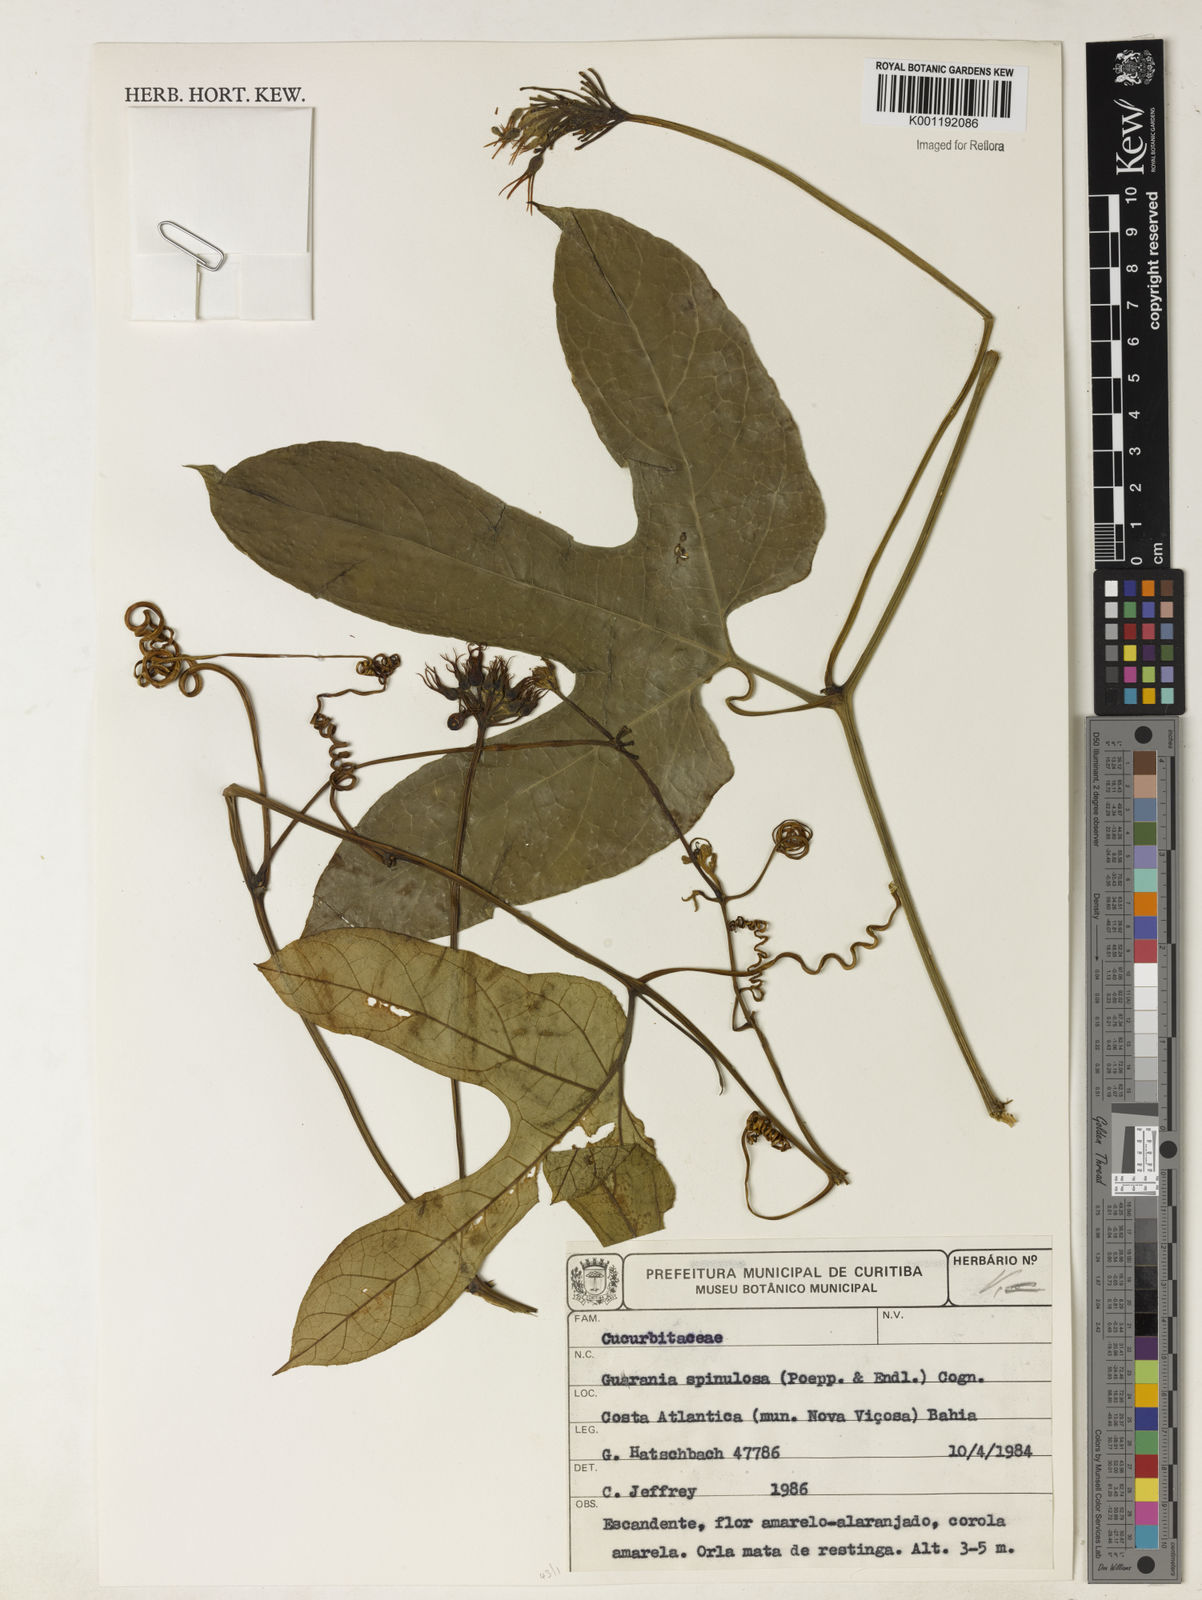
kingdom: Plantae
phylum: Tracheophyta
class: Magnoliopsida
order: Cucurbitales
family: Cucurbitaceae
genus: Gurania
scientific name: Gurania lobata
